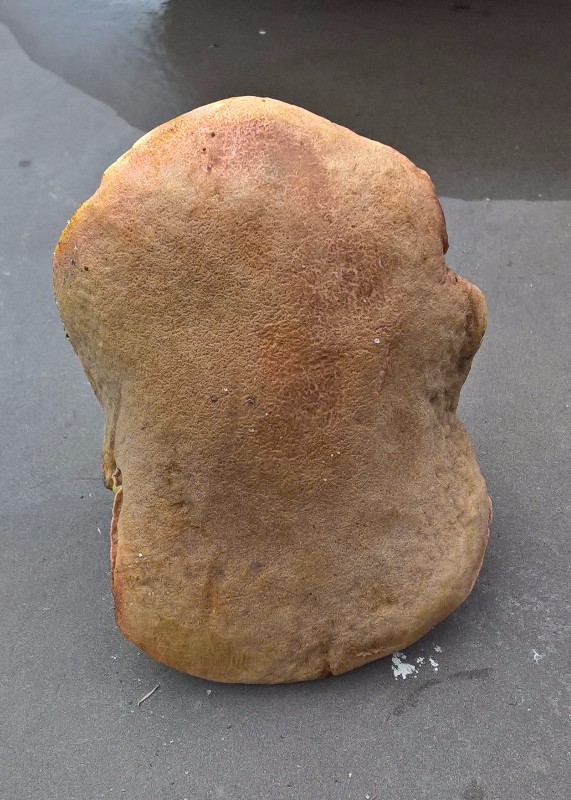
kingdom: Fungi
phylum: Basidiomycota
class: Agaricomycetes
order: Boletales
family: Boletaceae
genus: Hortiboletus
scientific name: Hortiboletus engelii
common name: fersken-rørhat
